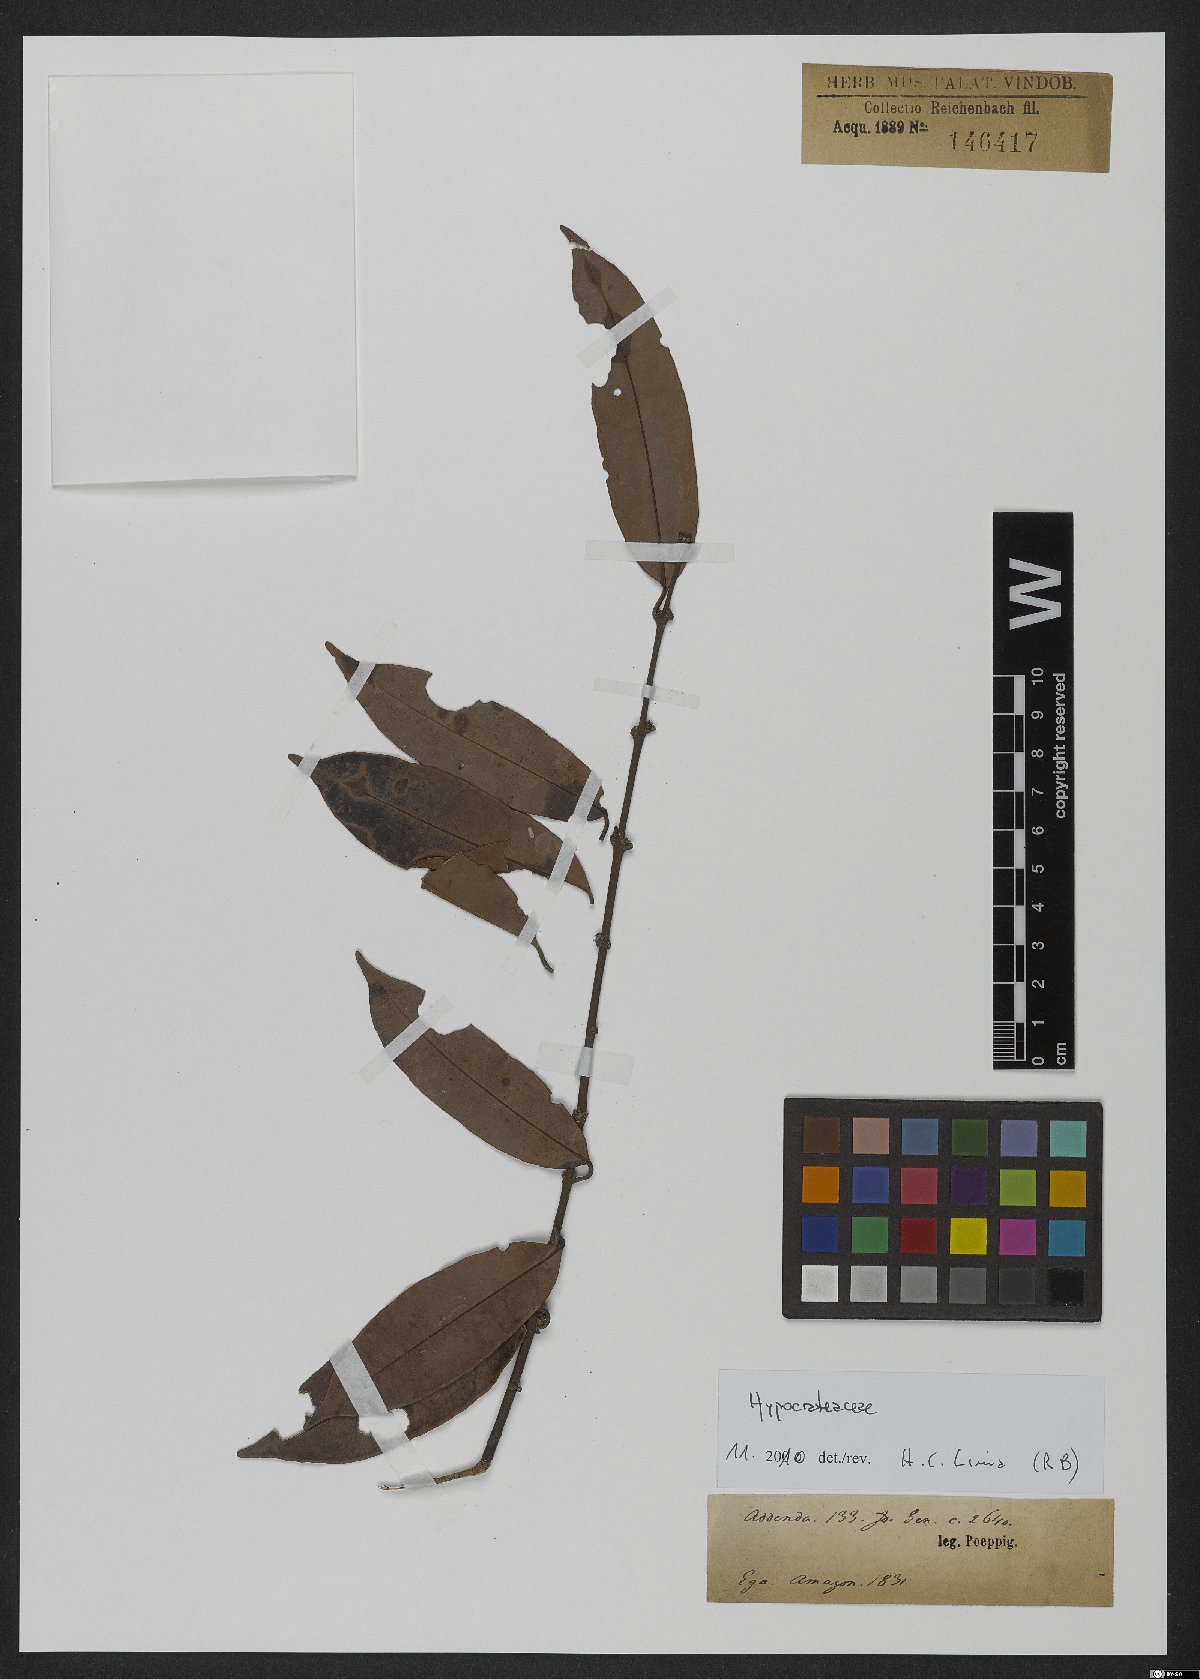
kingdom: Plantae
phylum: Tracheophyta
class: Magnoliopsida
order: Celastrales
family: Celastraceae
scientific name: Celastraceae
